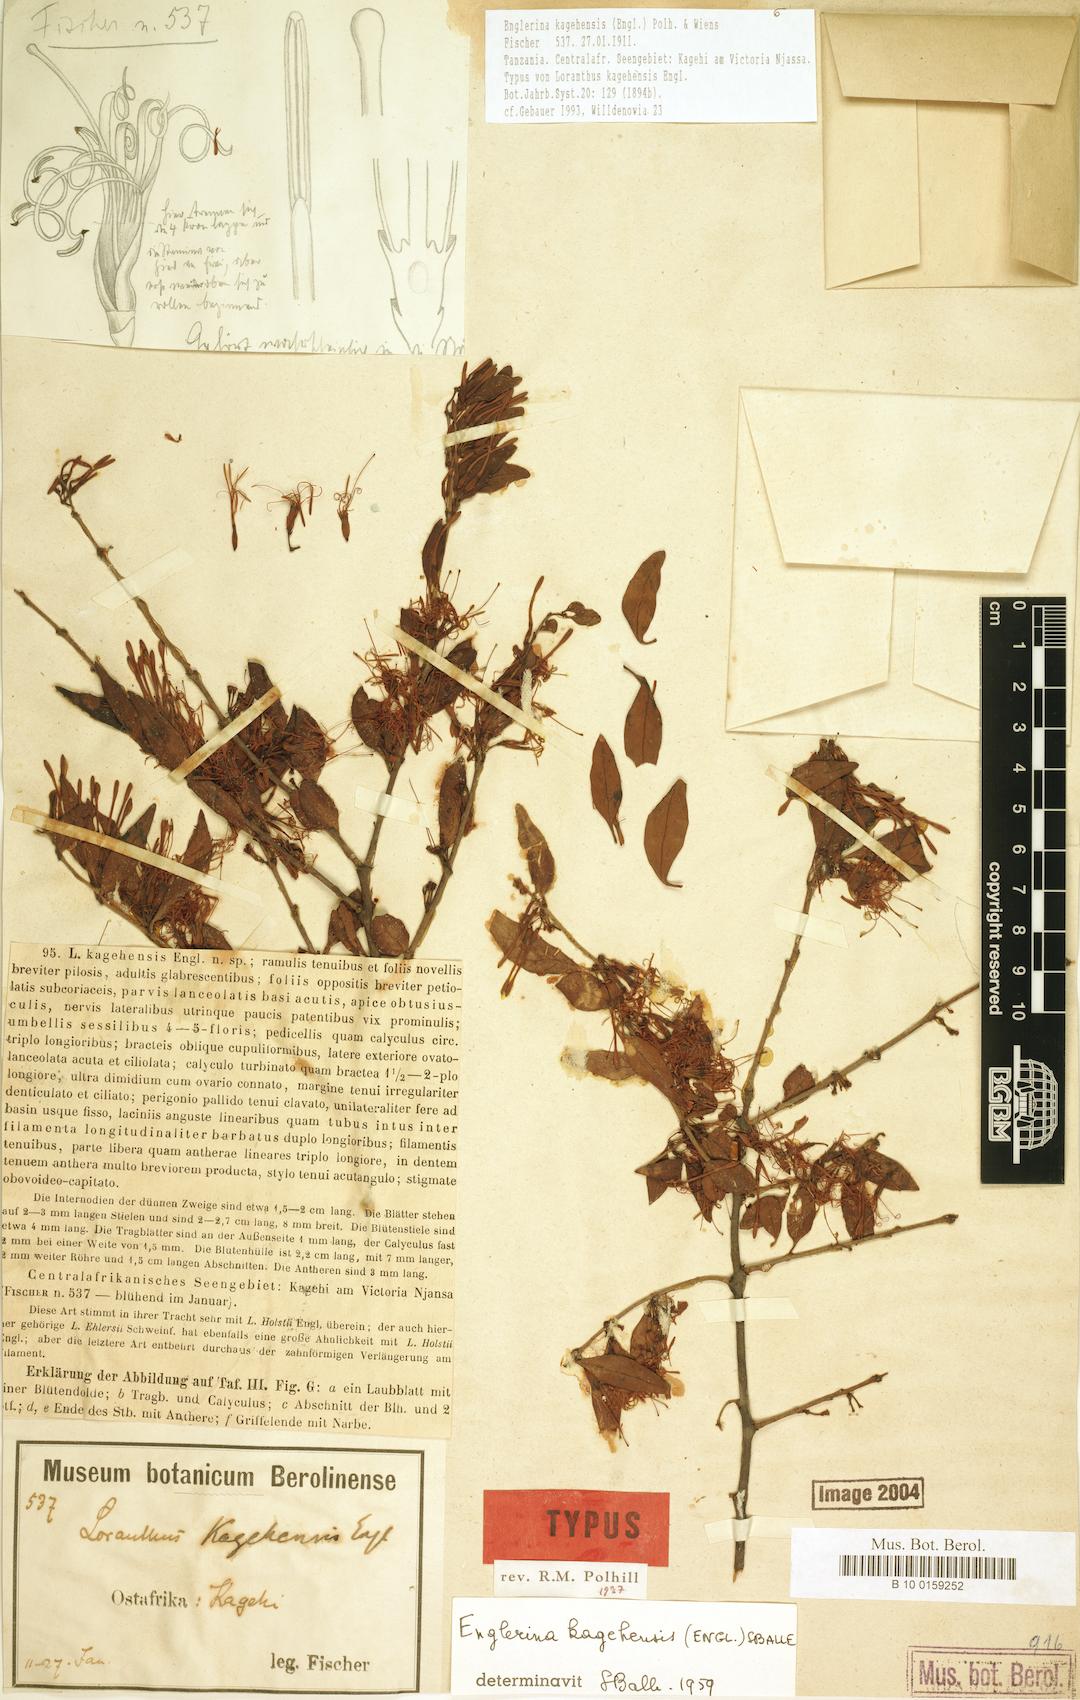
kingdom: Plantae
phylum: Tracheophyta
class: Magnoliopsida
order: Santalales
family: Loranthaceae
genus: Englerina
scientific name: Englerina kagehensis
